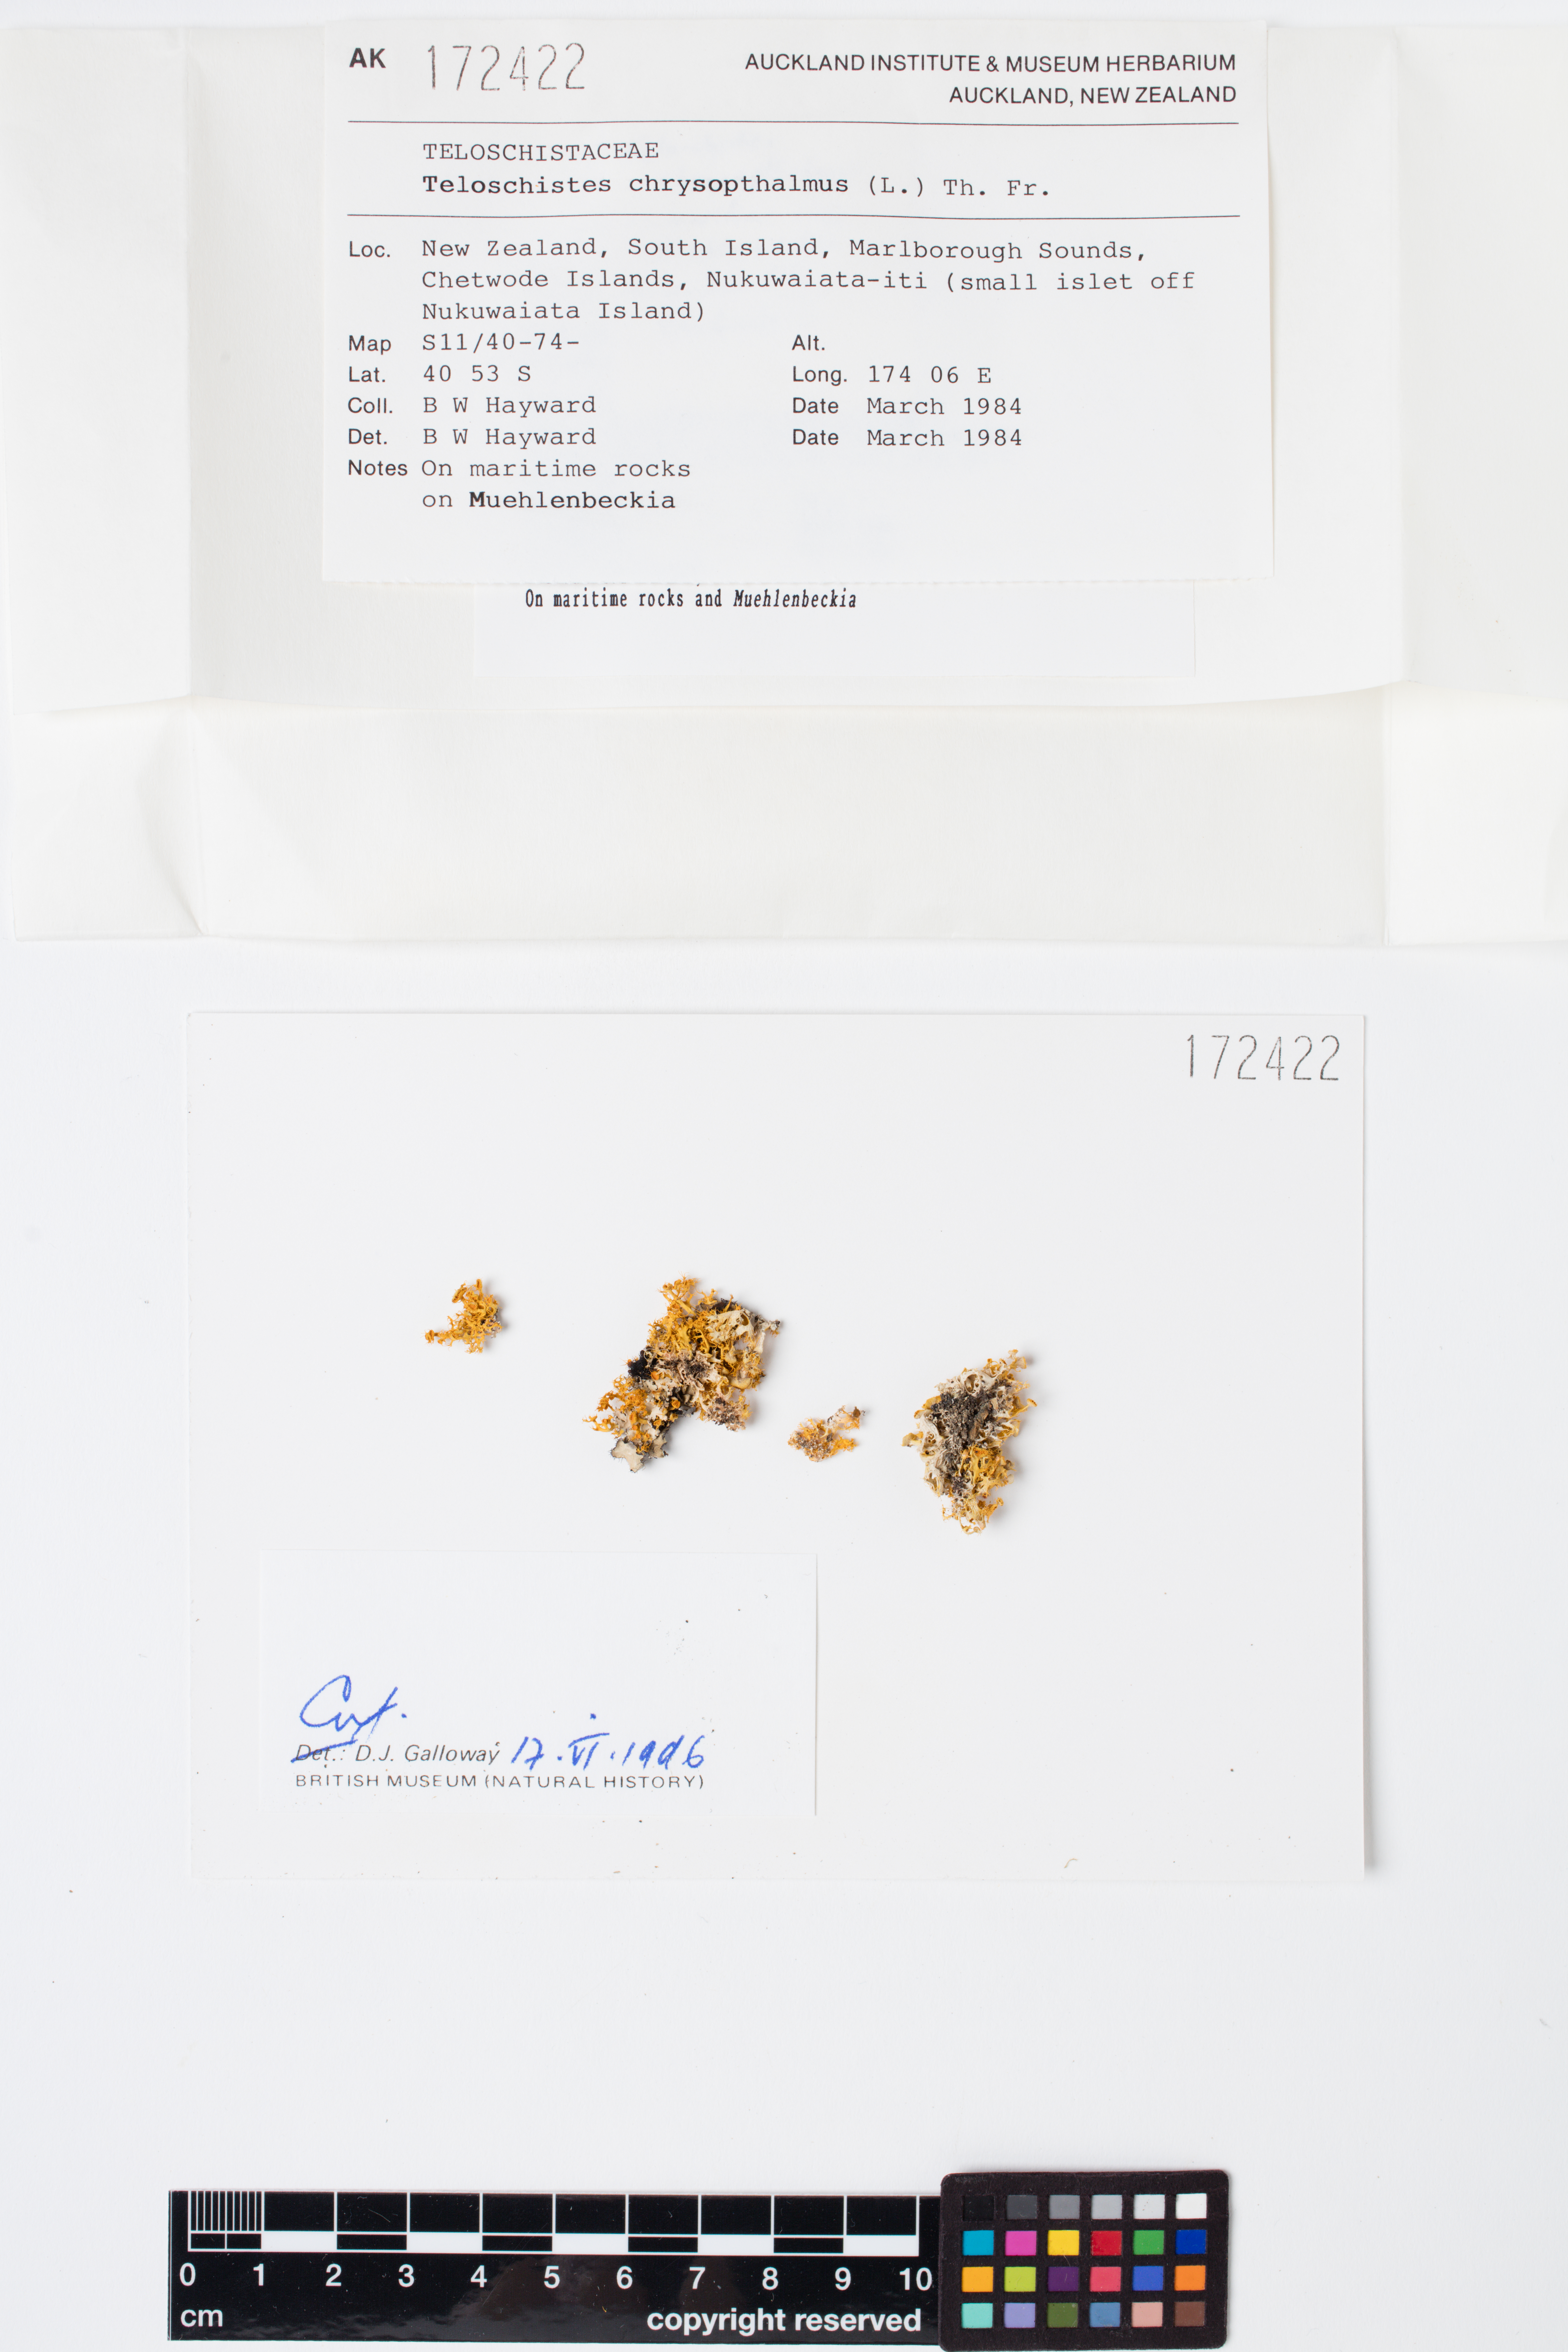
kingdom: Fungi
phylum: Ascomycota
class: Lecanoromycetes
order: Teloschistales
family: Teloschistaceae
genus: Niorma
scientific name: Niorma chrysophthalma
